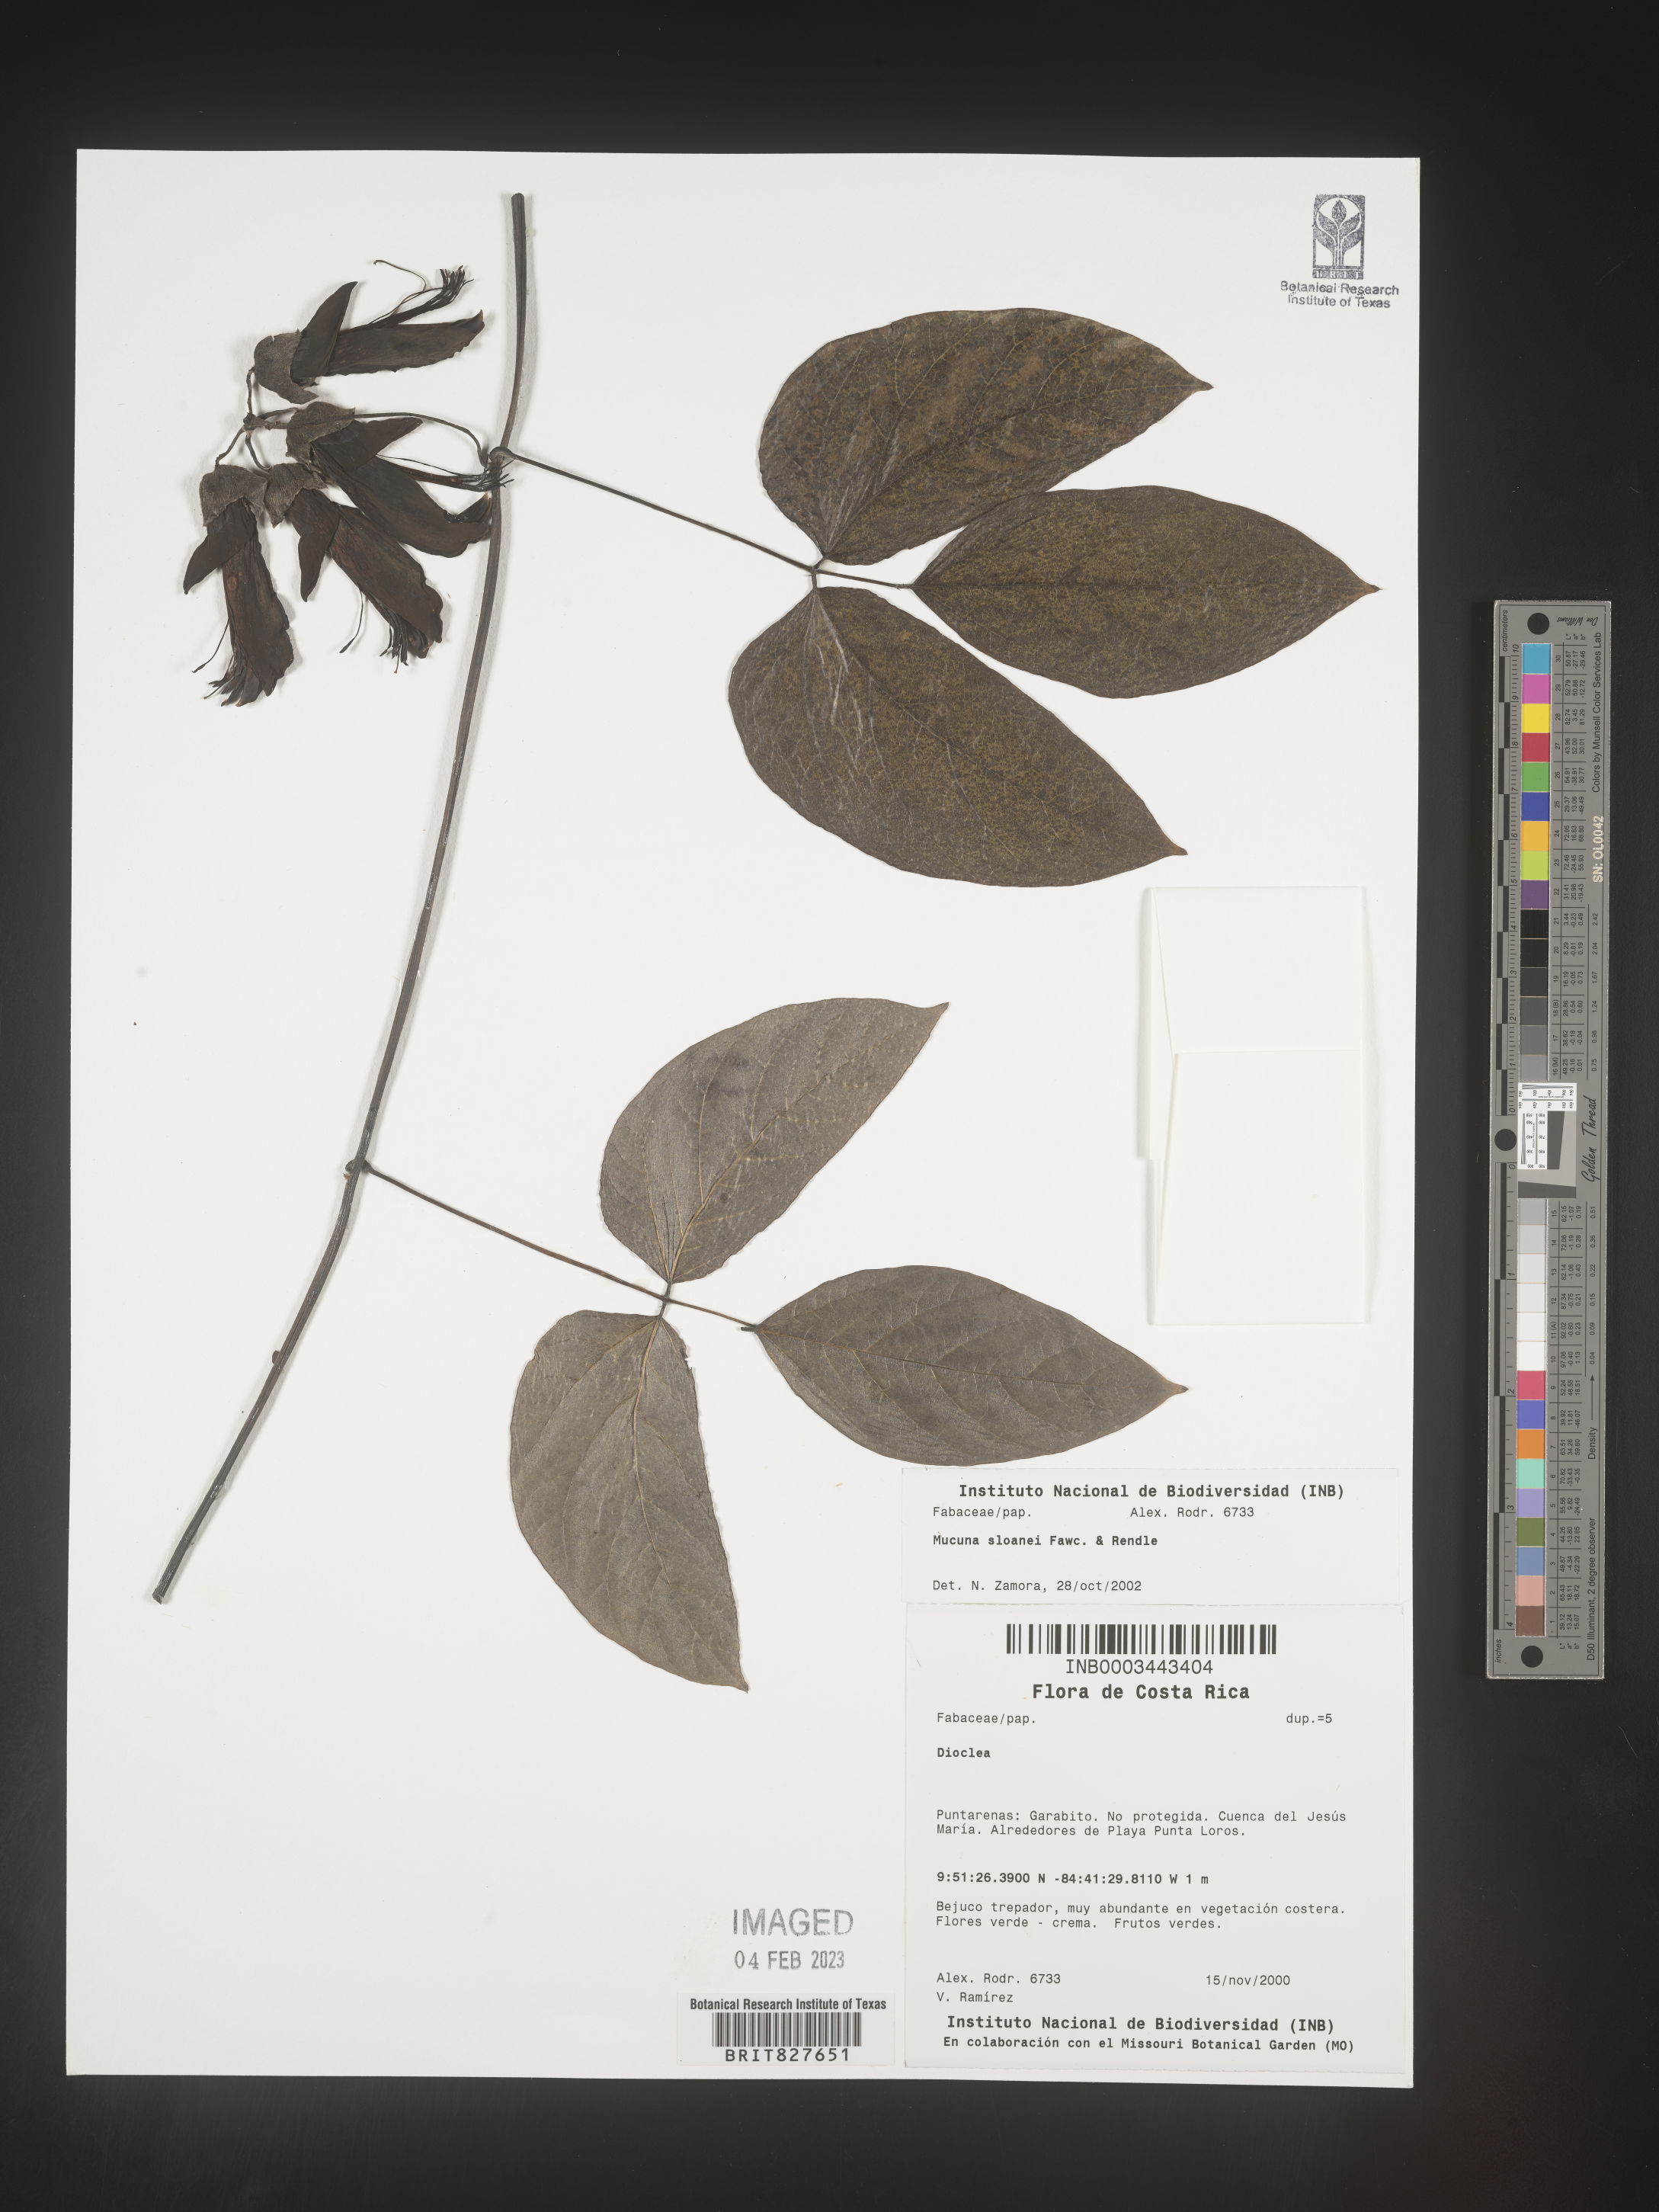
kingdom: Plantae
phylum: Tracheophyta
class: Magnoliopsida
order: Fabales
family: Fabaceae
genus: Mucuna
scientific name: Mucuna
